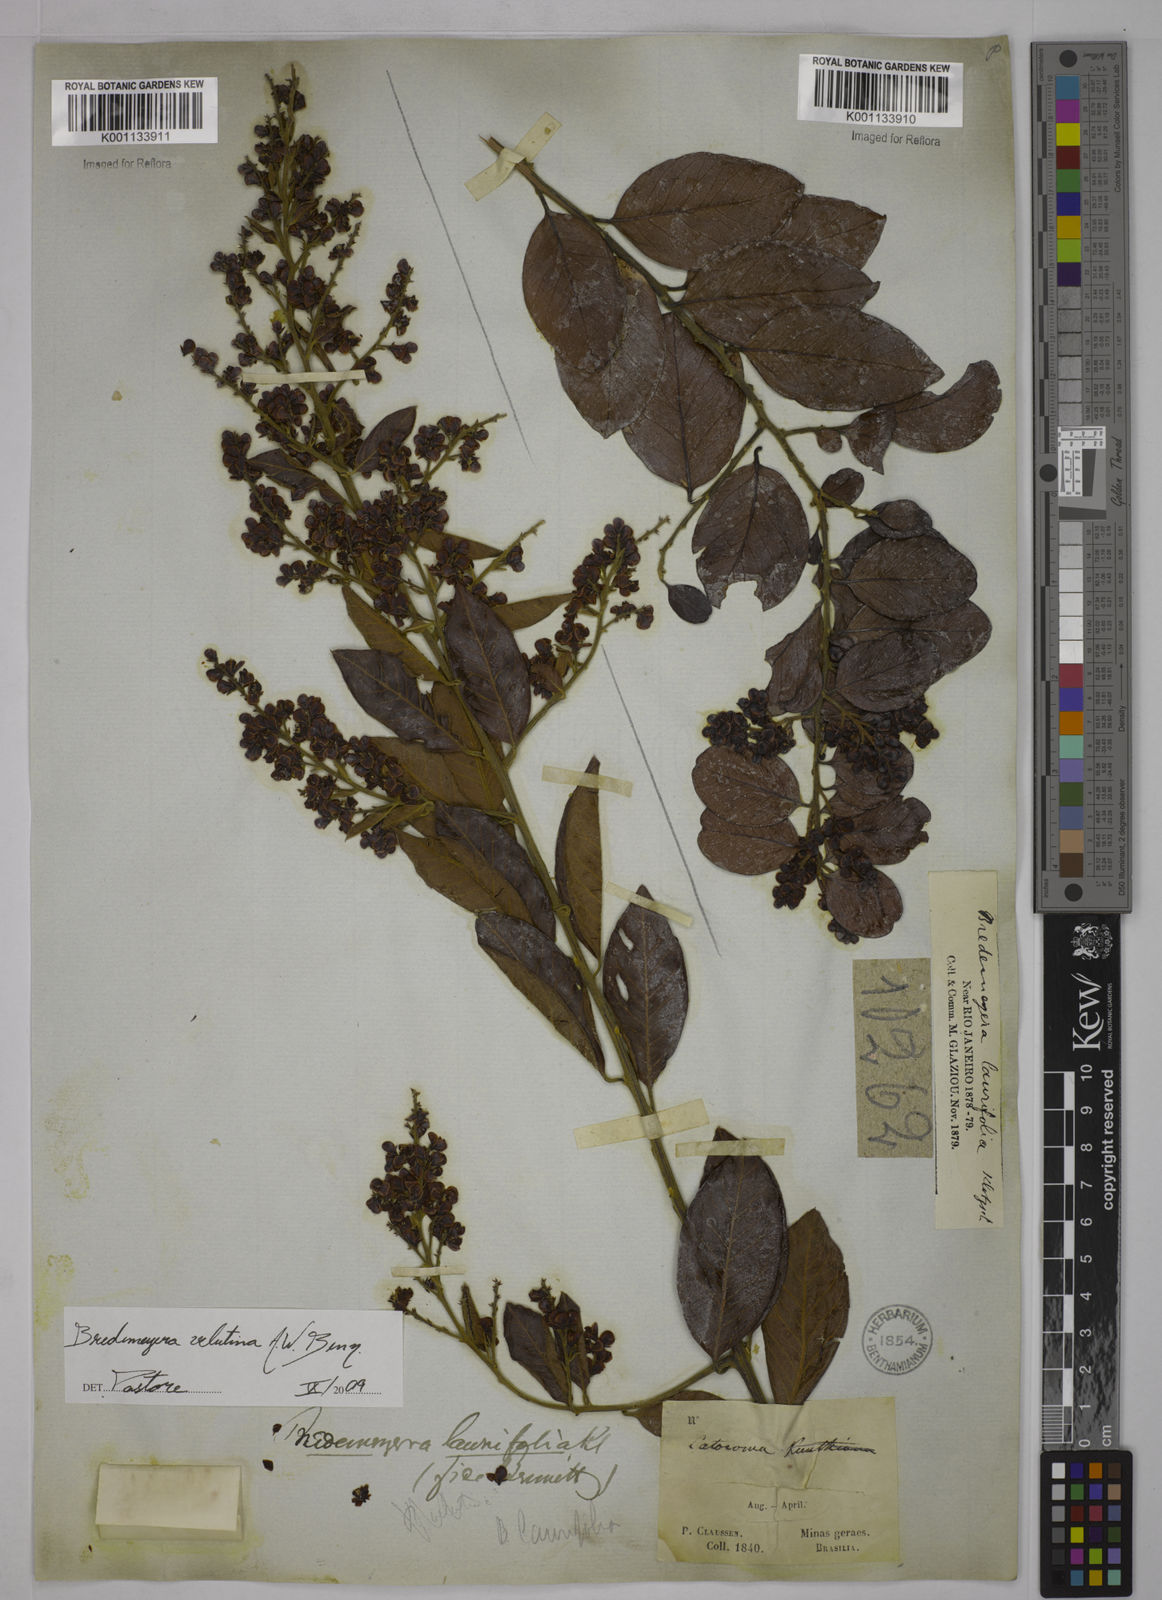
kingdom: Plantae
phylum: Tracheophyta
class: Magnoliopsida
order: Fabales
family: Polygalaceae
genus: Bredemeyera
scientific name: Bredemeyera hebeclada
